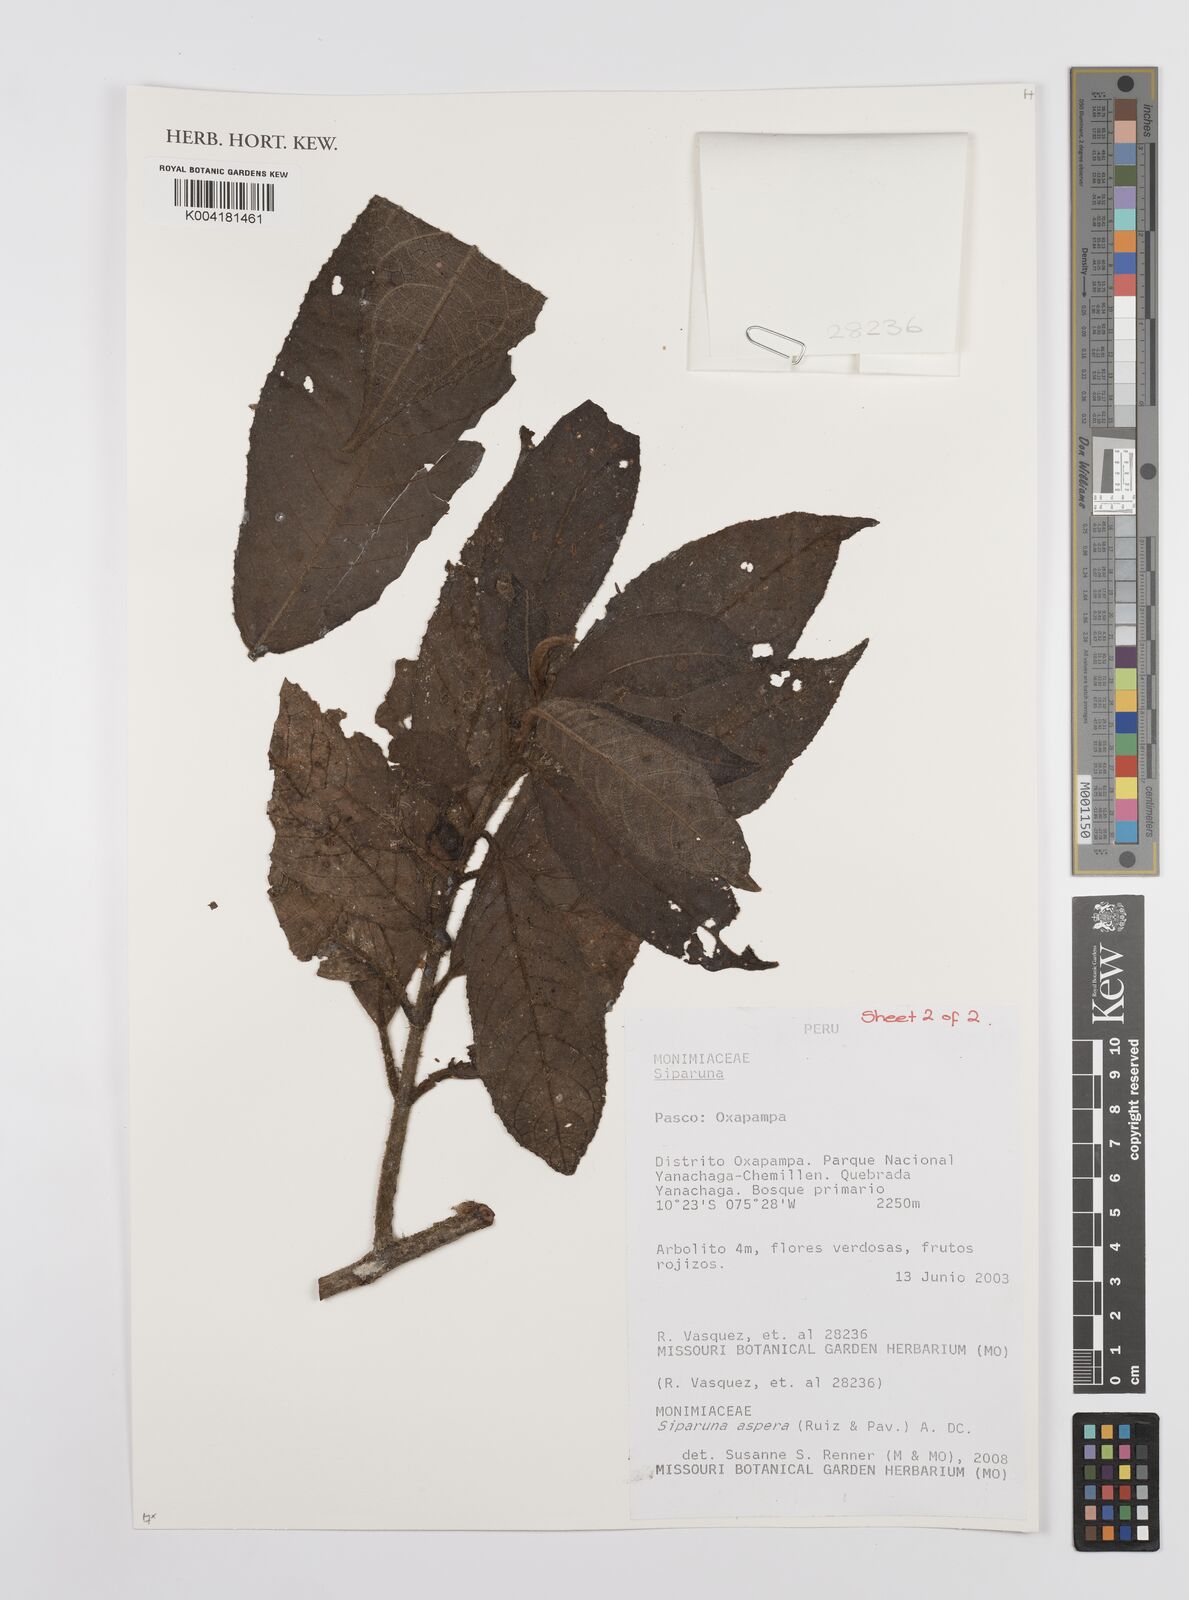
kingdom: Plantae
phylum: Tracheophyta
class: Magnoliopsida
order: Laurales
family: Siparunaceae
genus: Siparuna
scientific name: Siparuna aspera
